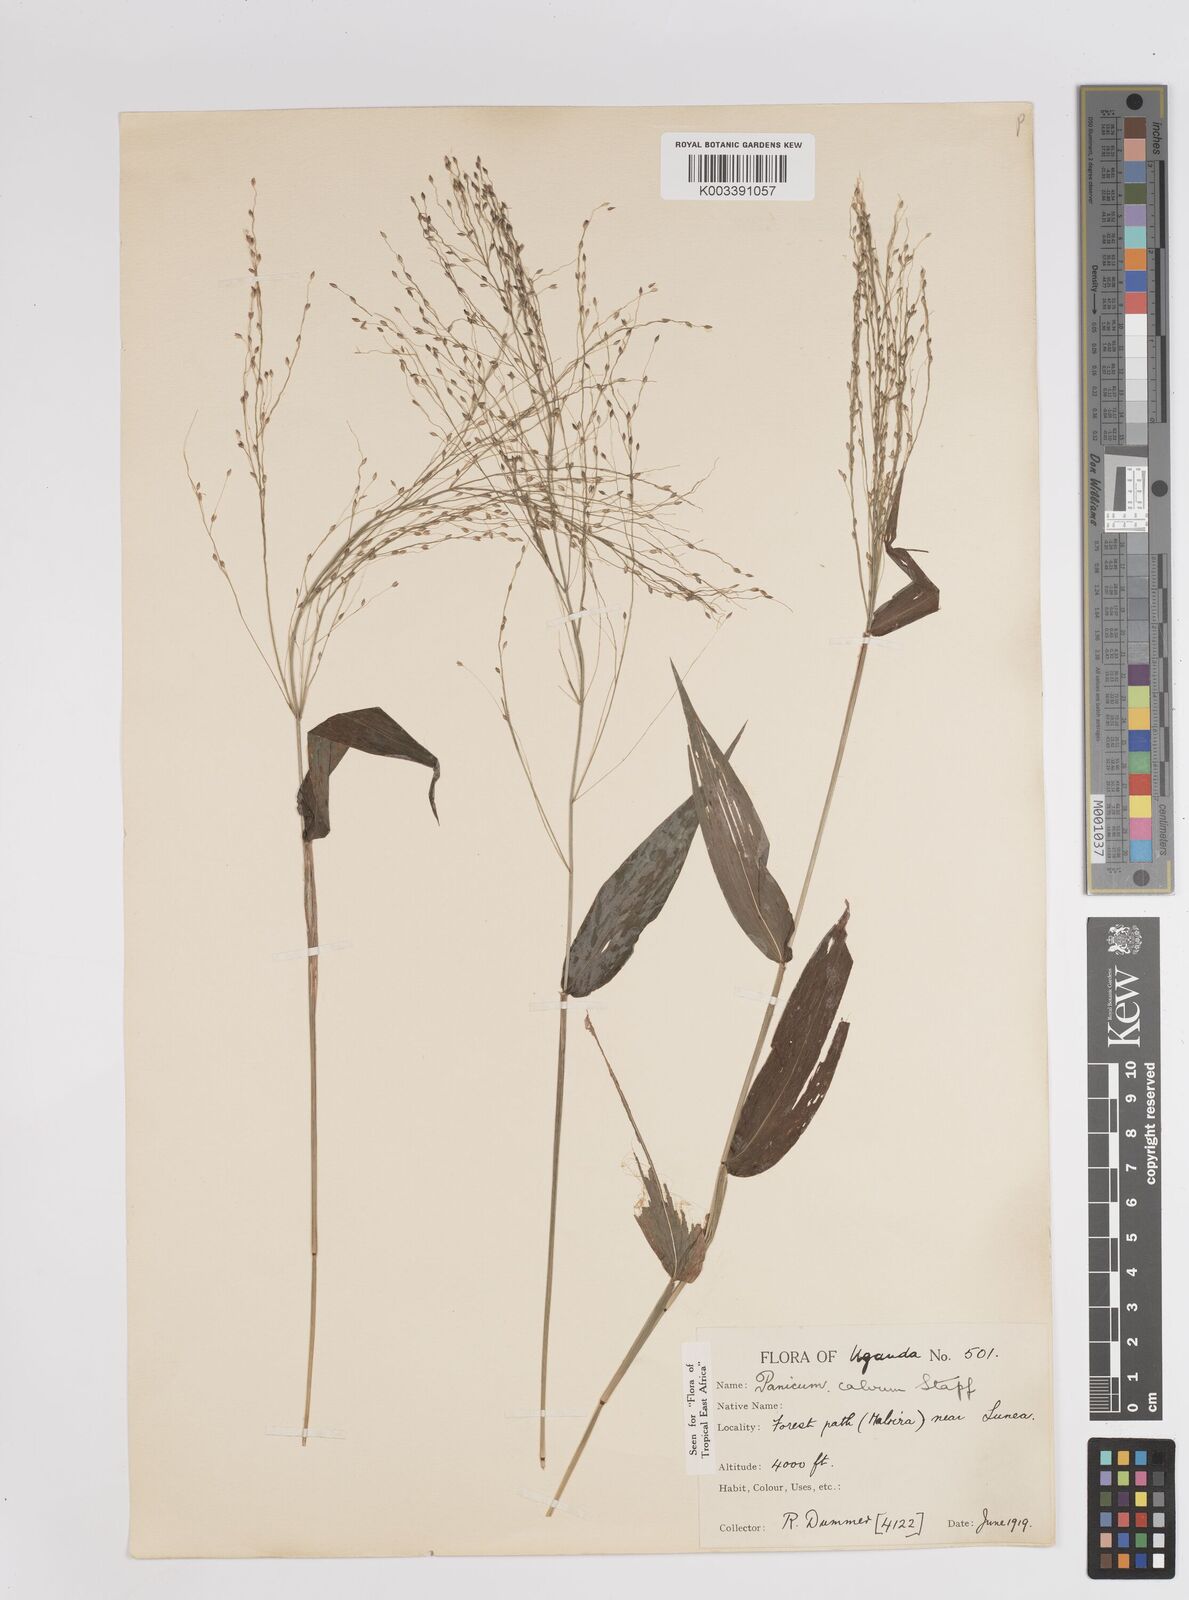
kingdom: Plantae
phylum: Tracheophyta
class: Liliopsida
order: Poales
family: Poaceae
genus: Panicum
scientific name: Panicum calvum
